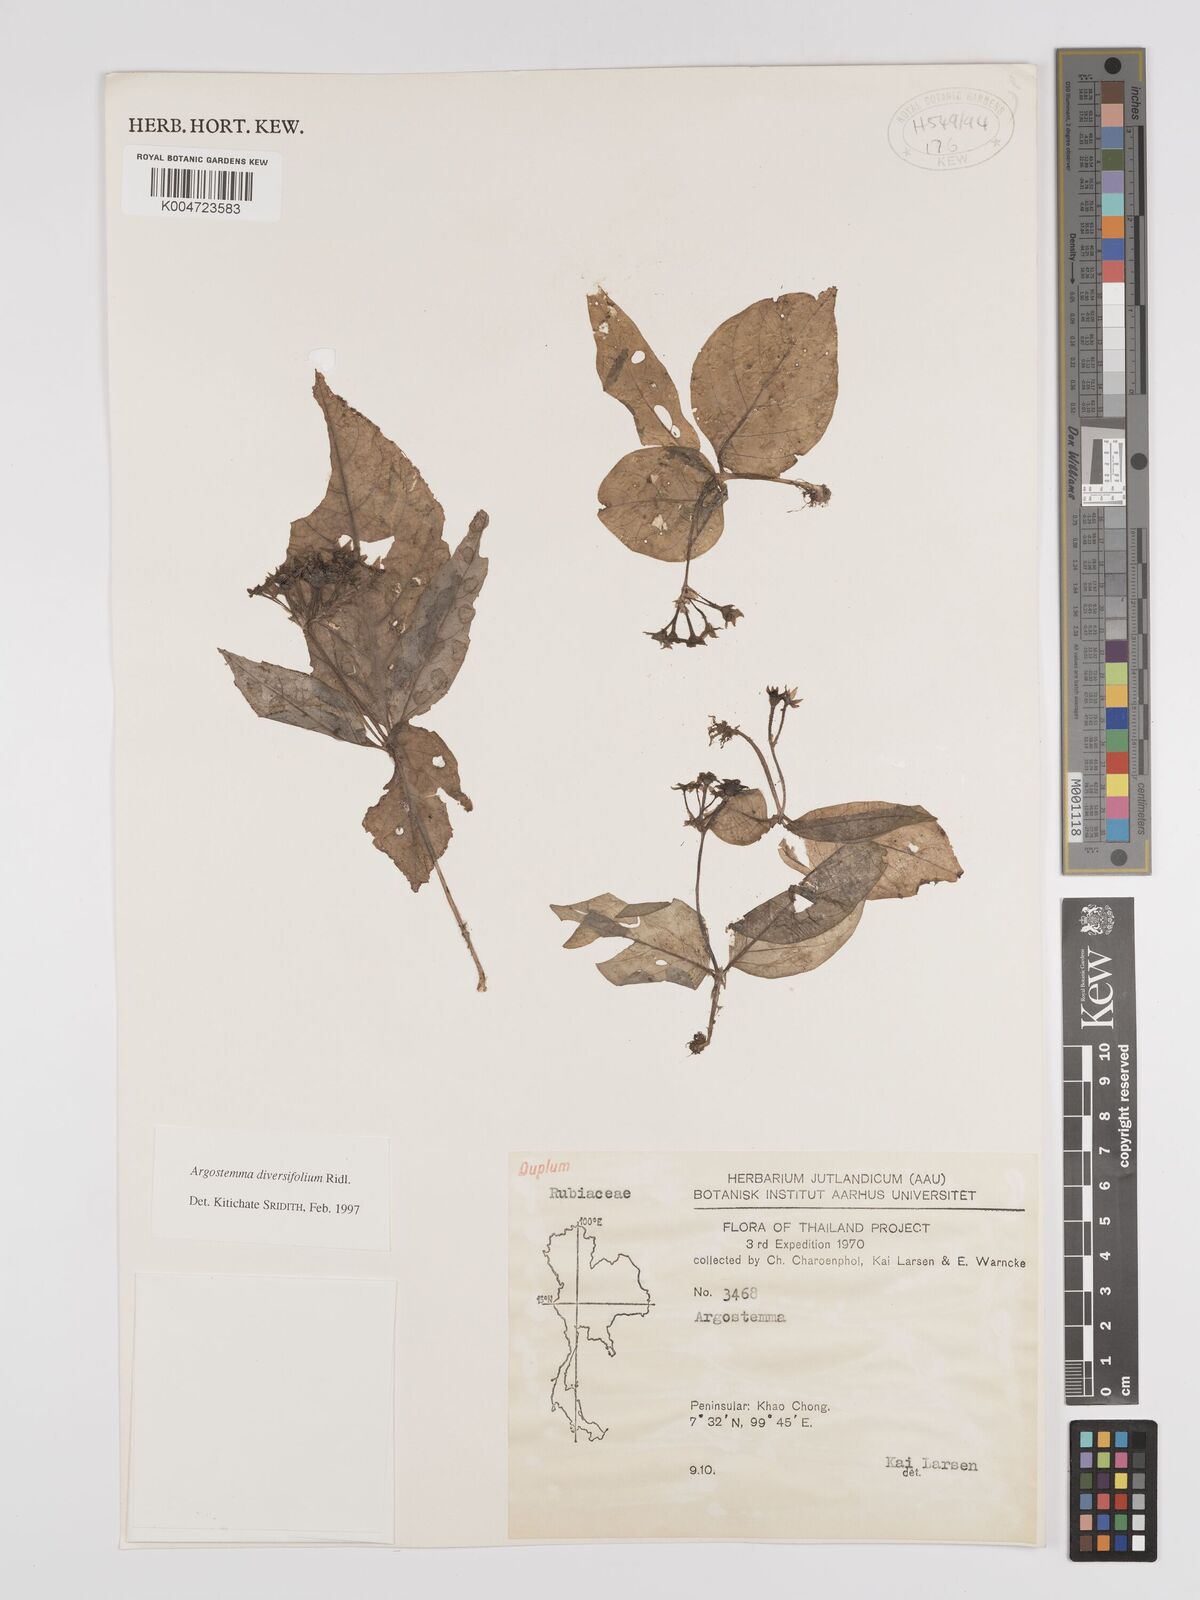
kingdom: Plantae
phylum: Tracheophyta
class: Magnoliopsida
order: Gentianales
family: Rubiaceae
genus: Argostemma
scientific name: Argostemma diversifolium
